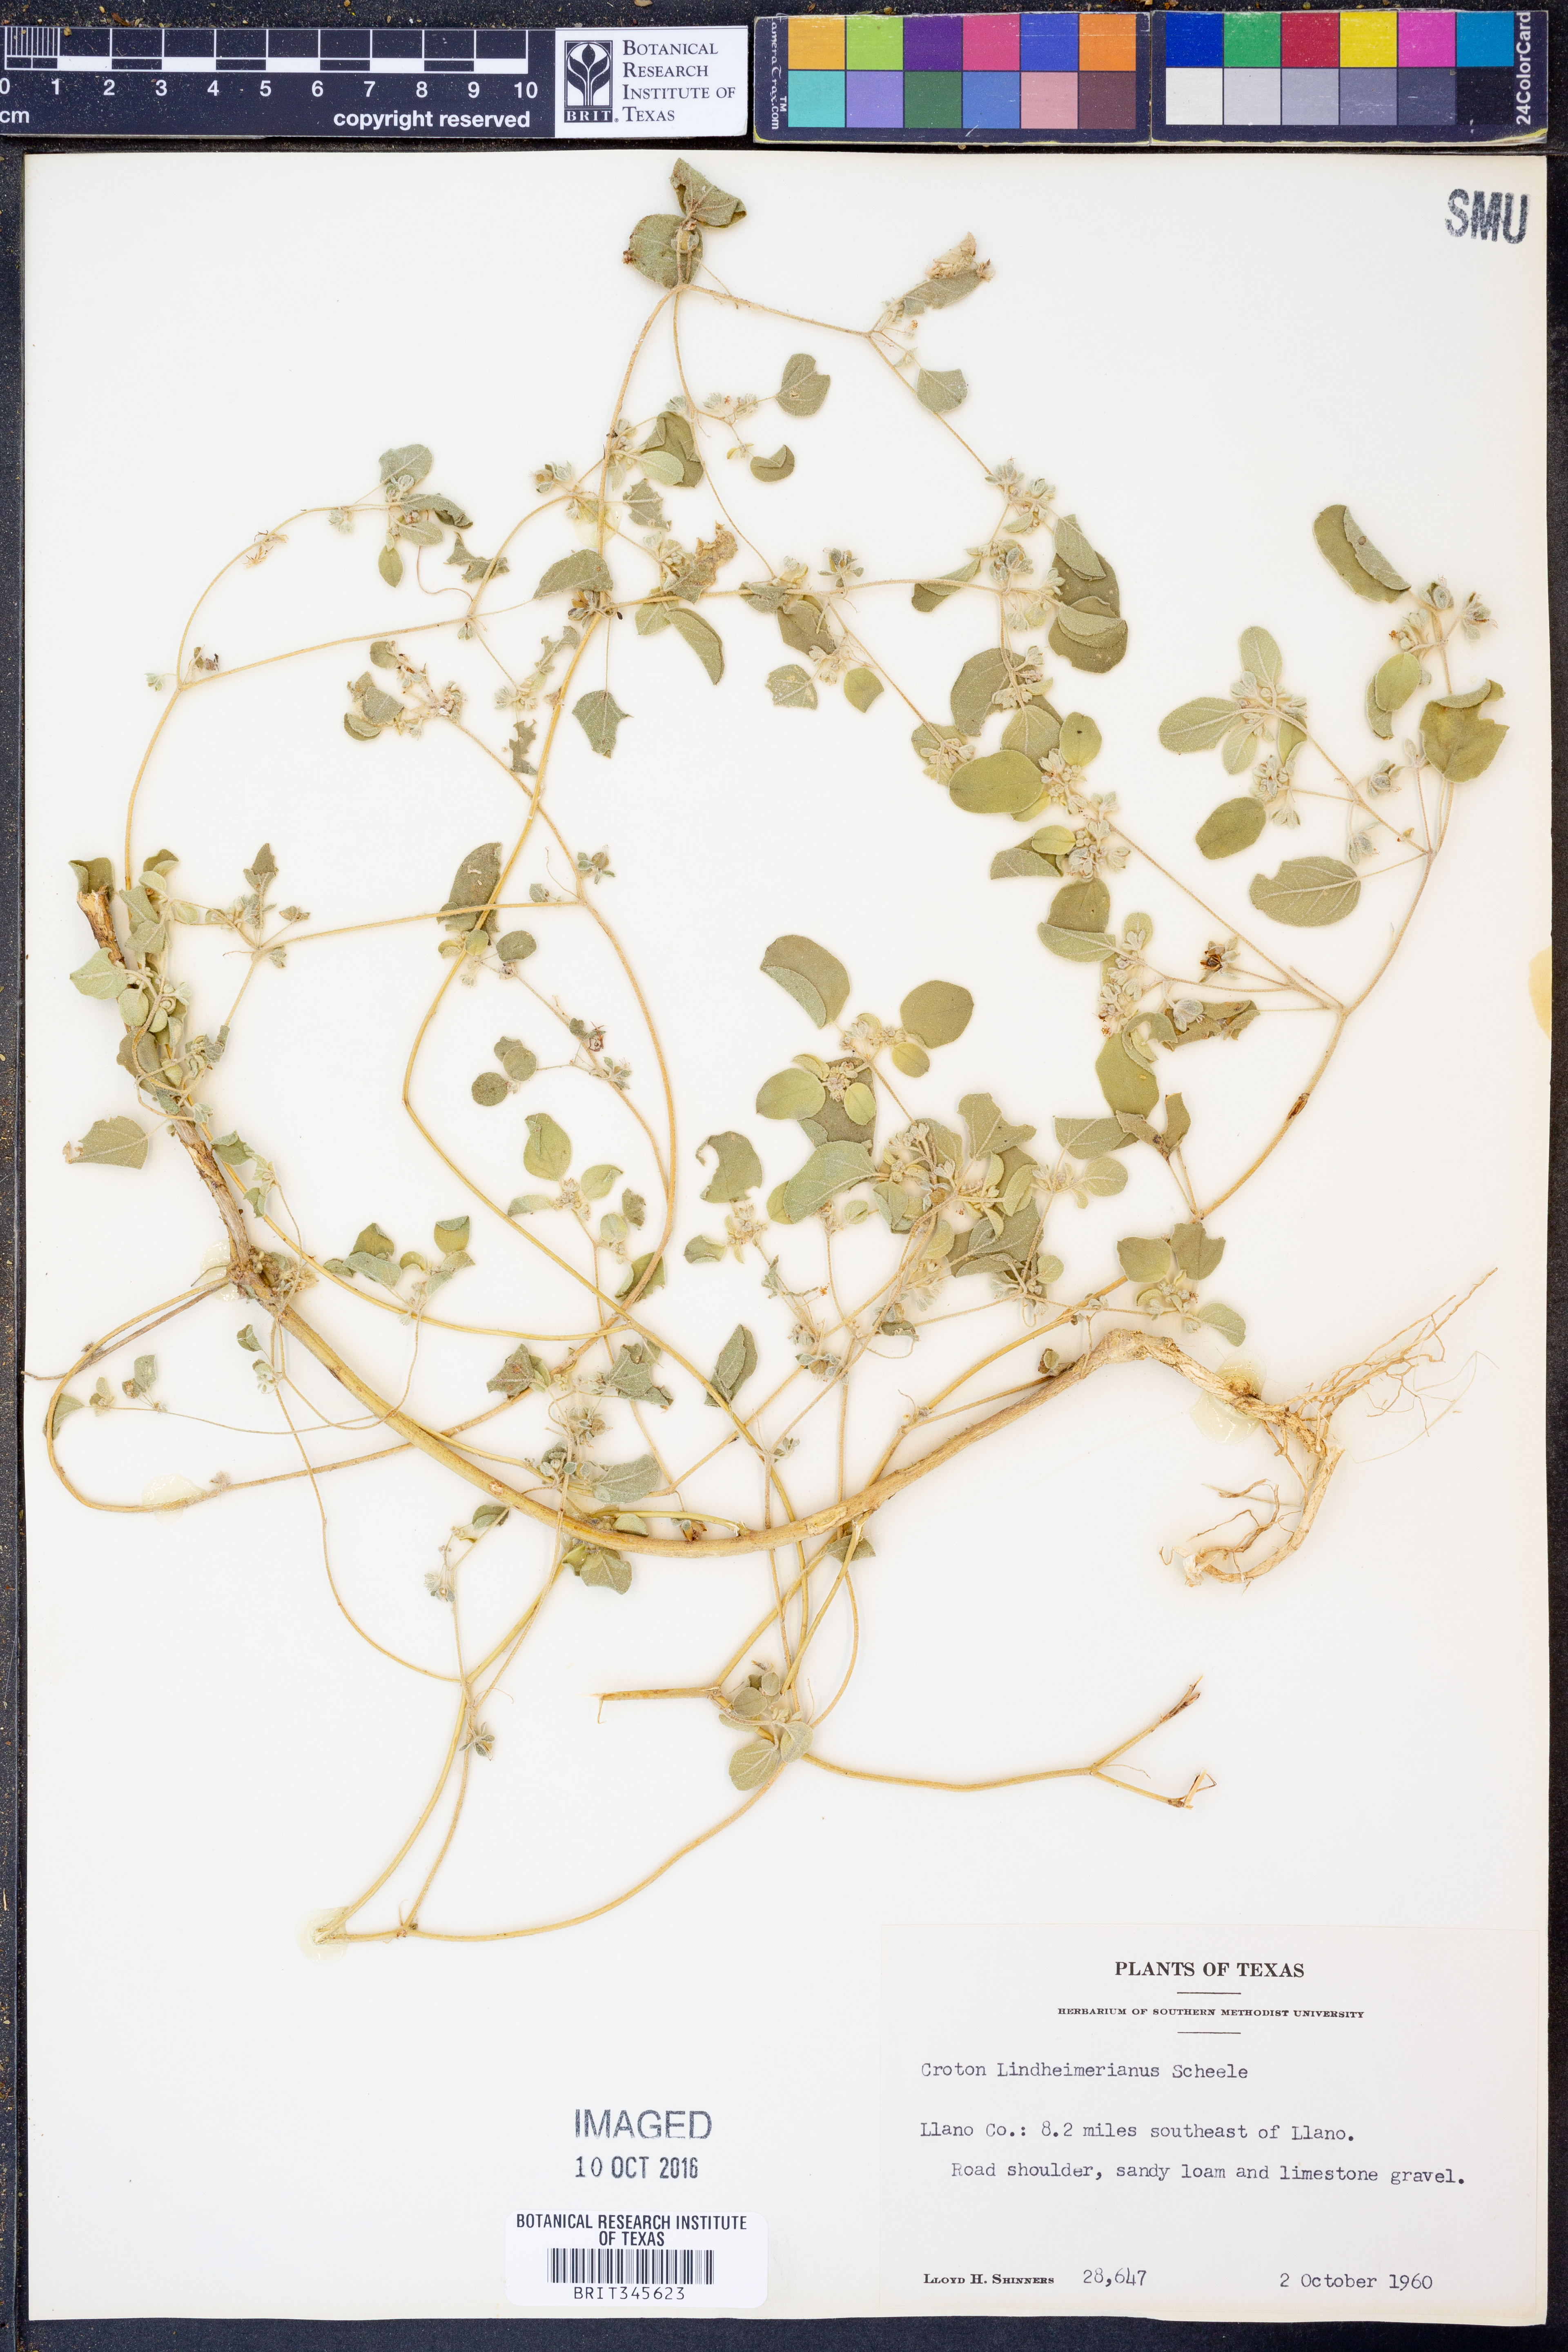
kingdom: Plantae
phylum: Tracheophyta
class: Magnoliopsida
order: Malpighiales
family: Euphorbiaceae
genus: Croton
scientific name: Croton lindheimerianus
